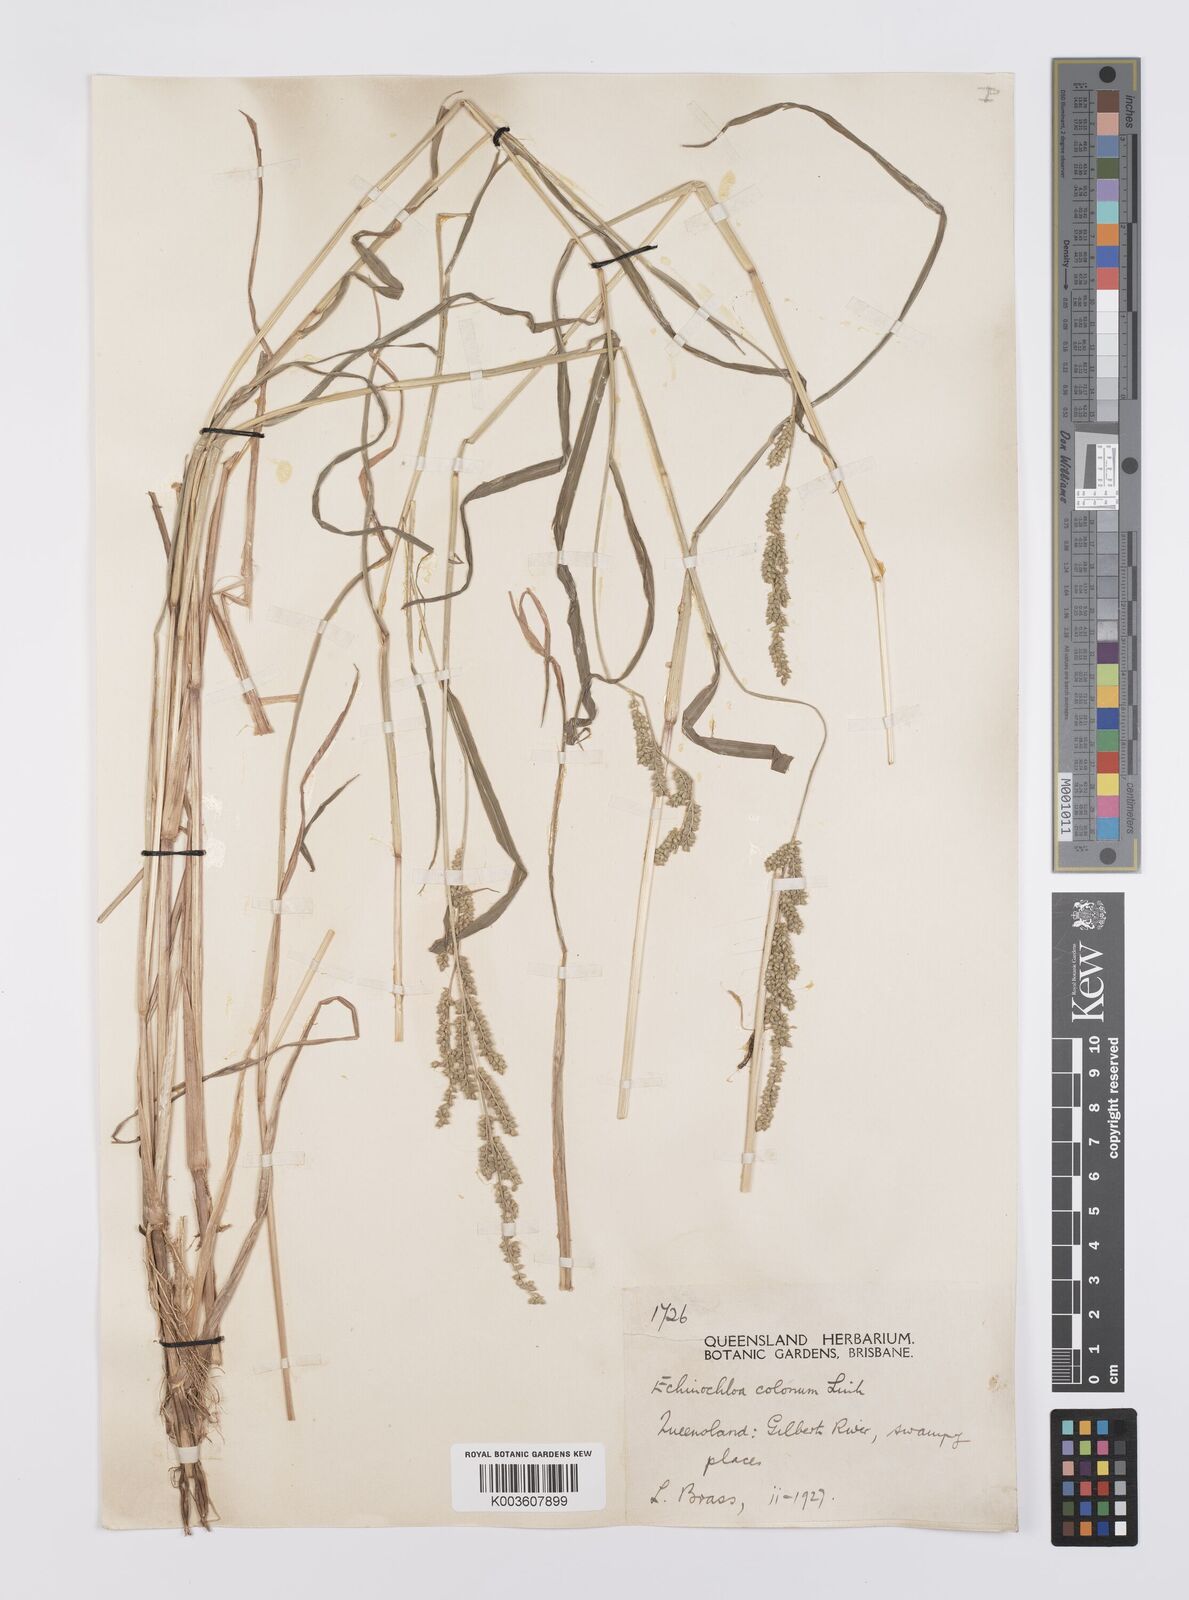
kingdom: Plantae
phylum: Tracheophyta
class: Liliopsida
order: Poales
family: Poaceae
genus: Echinochloa
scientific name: Echinochloa colonum
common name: Jungle rice
